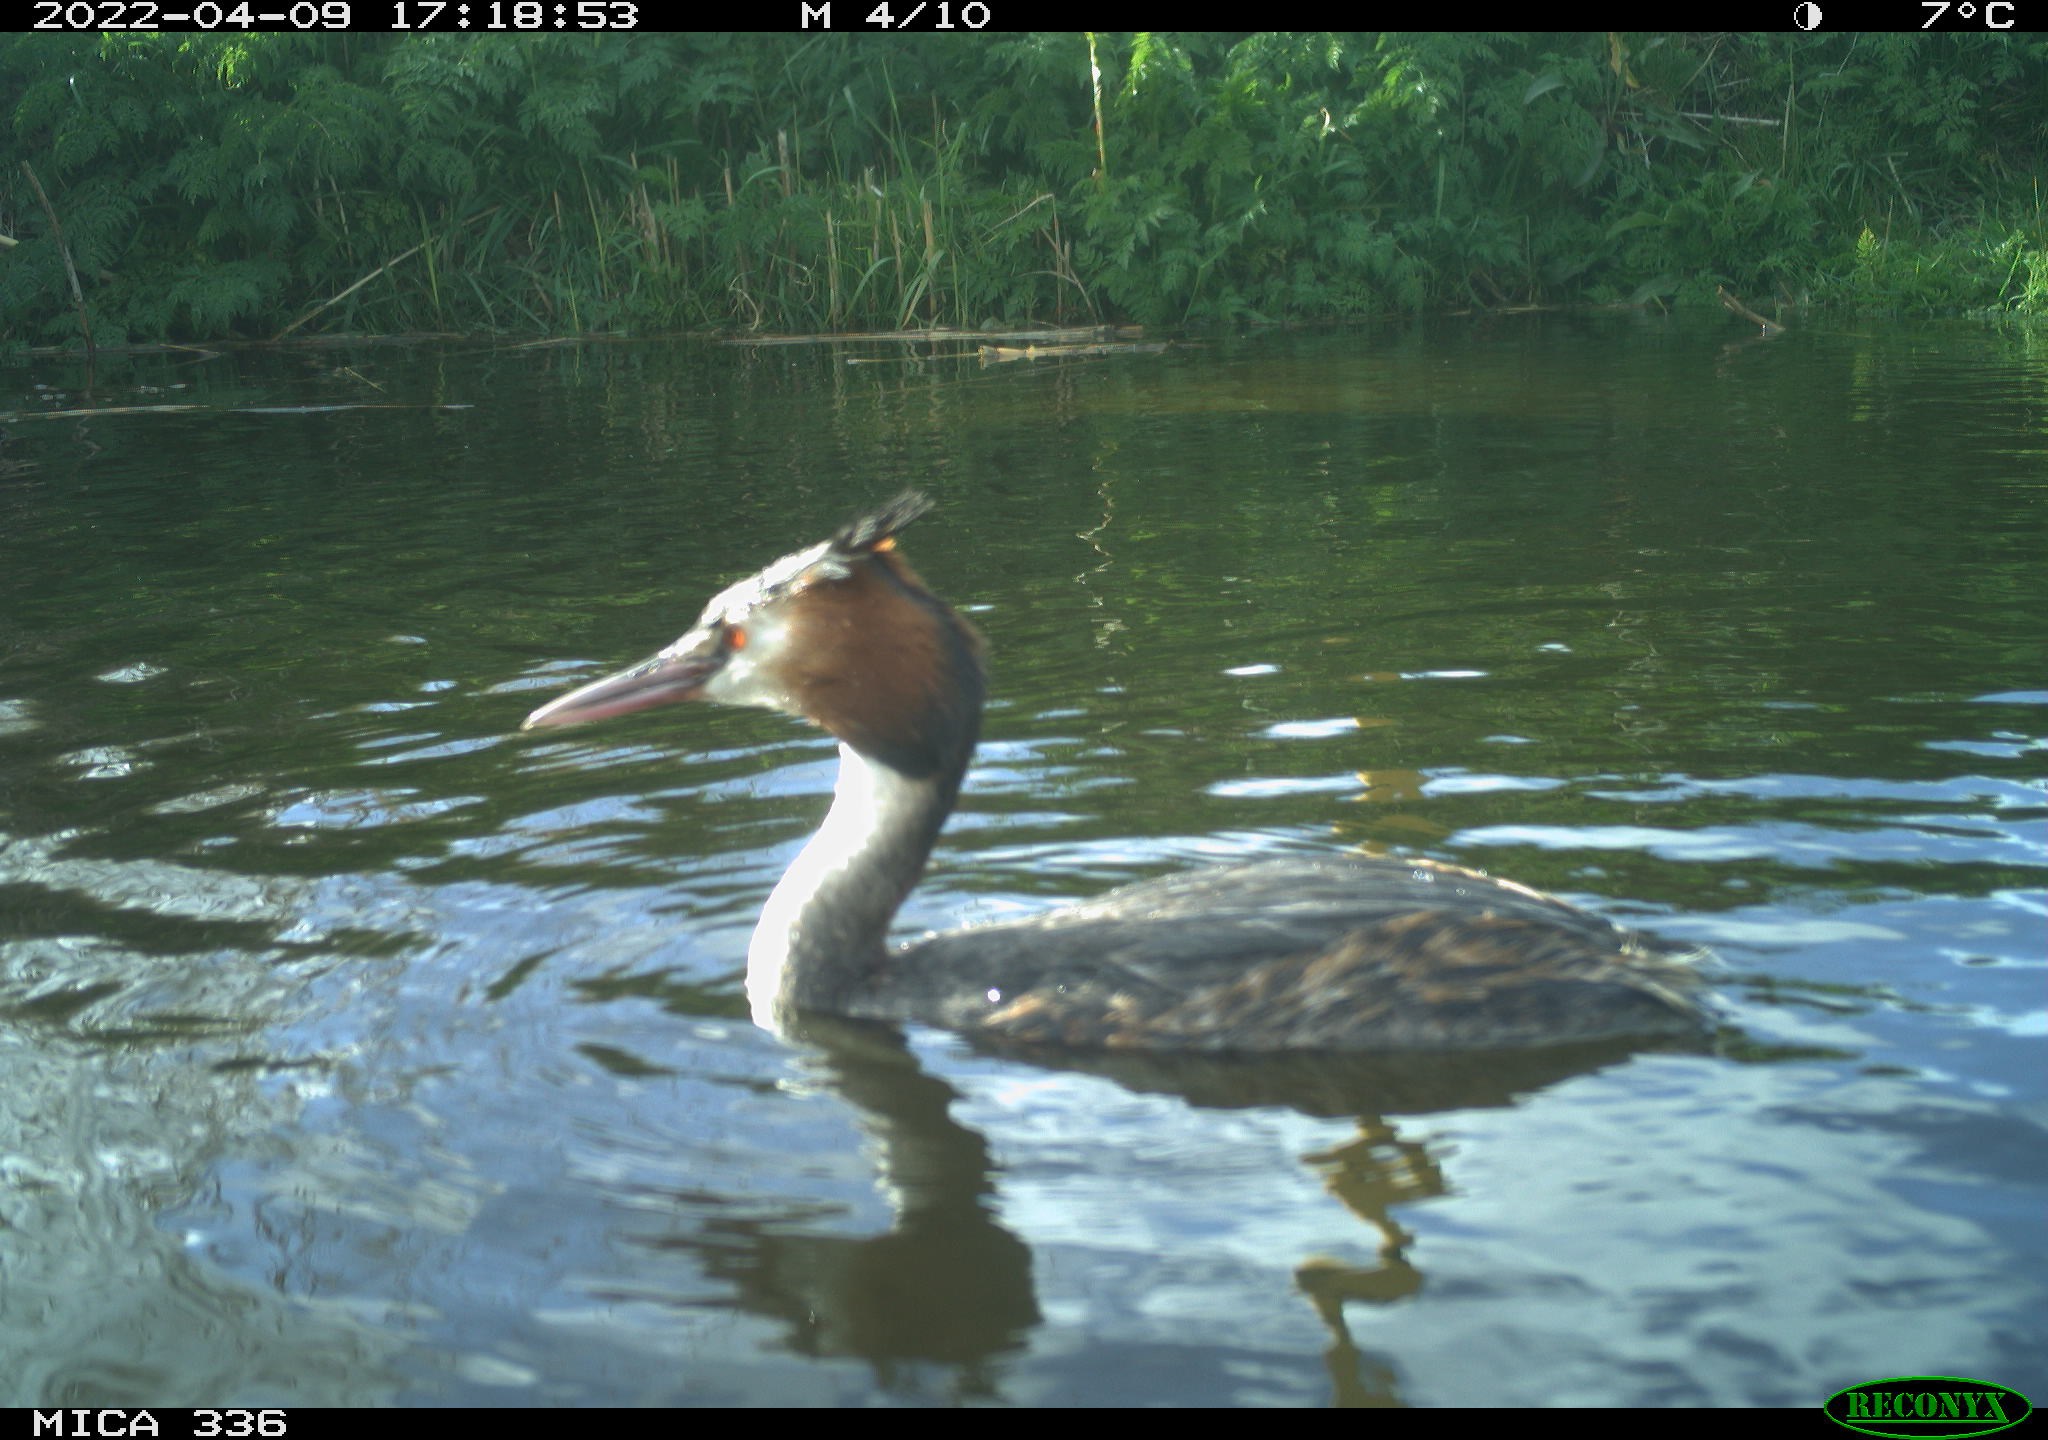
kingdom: Animalia
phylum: Chordata
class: Aves
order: Podicipediformes
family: Podicipedidae
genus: Podiceps
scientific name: Podiceps cristatus
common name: Great crested grebe
